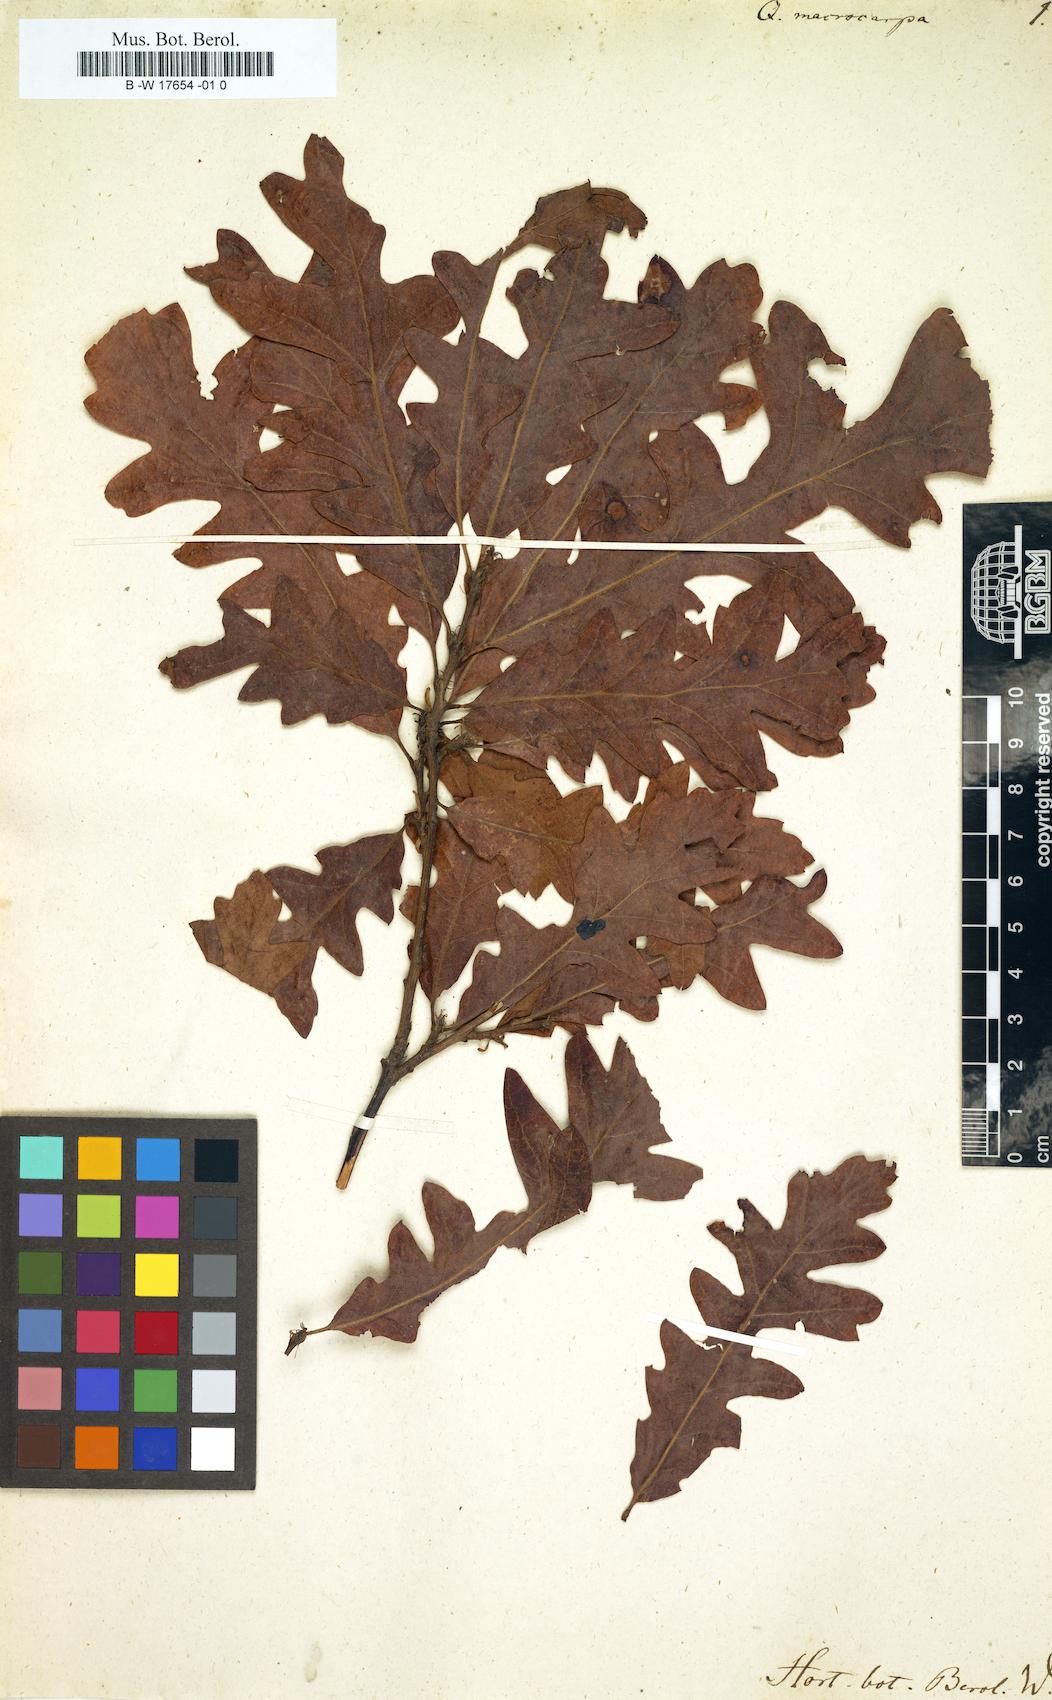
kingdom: Plantae
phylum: Tracheophyta
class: Magnoliopsida
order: Fagales
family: Fagaceae
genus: Quercus
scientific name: Quercus macrocarpa
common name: Bur oak
